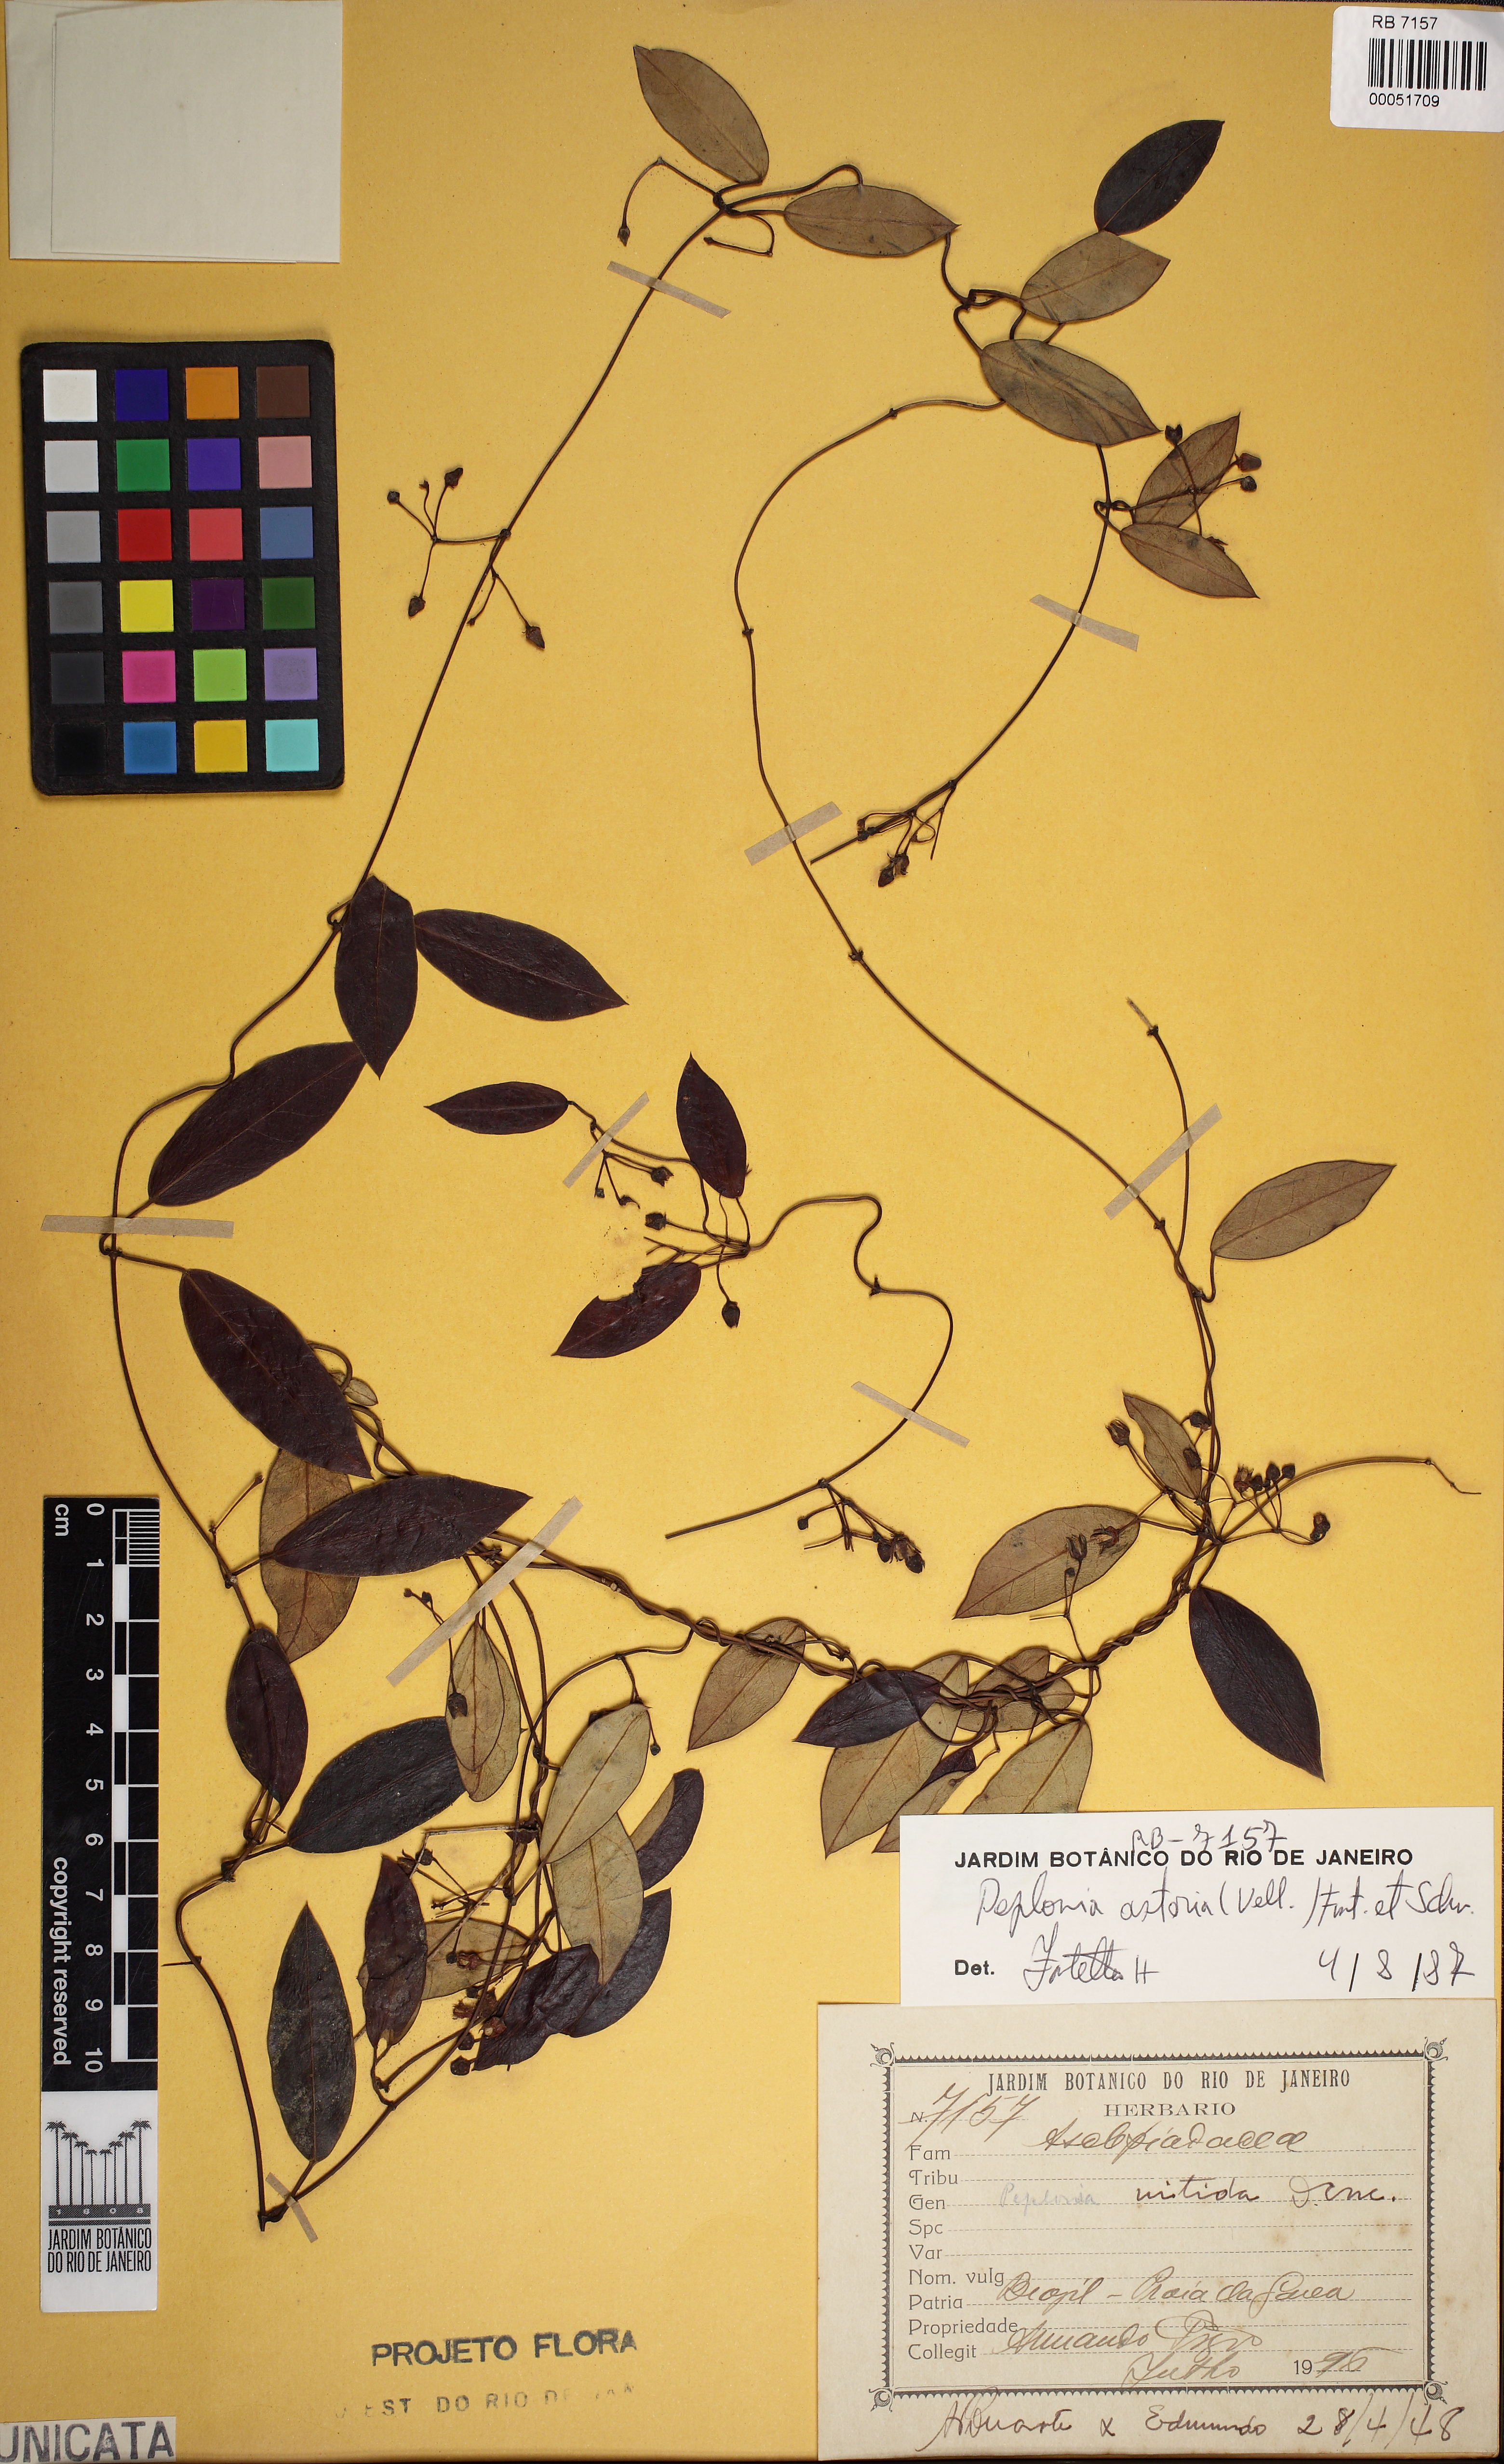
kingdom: Plantae
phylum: Tracheophyta
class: Magnoliopsida
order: Gentianales
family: Apocynaceae
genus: Peplonia
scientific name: Peplonia asteria
